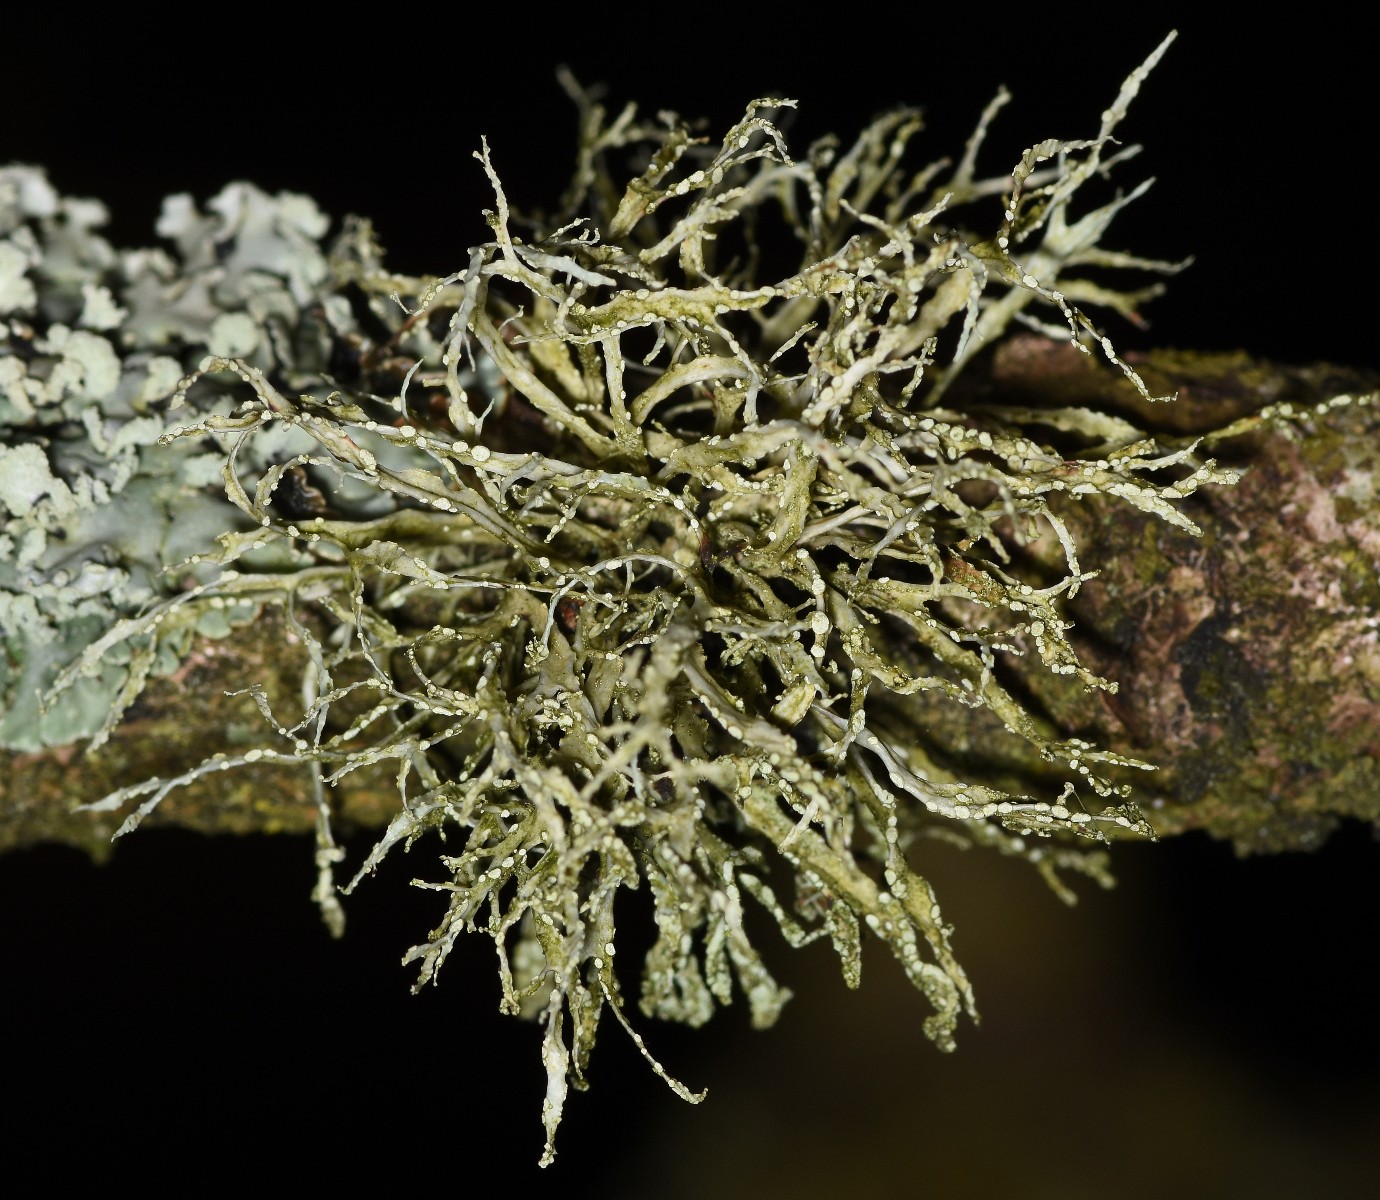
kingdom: Fungi
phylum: Ascomycota
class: Lecanoromycetes
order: Lecanorales
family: Ramalinaceae
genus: Ramalina
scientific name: Ramalina farinacea
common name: melet grenlav
